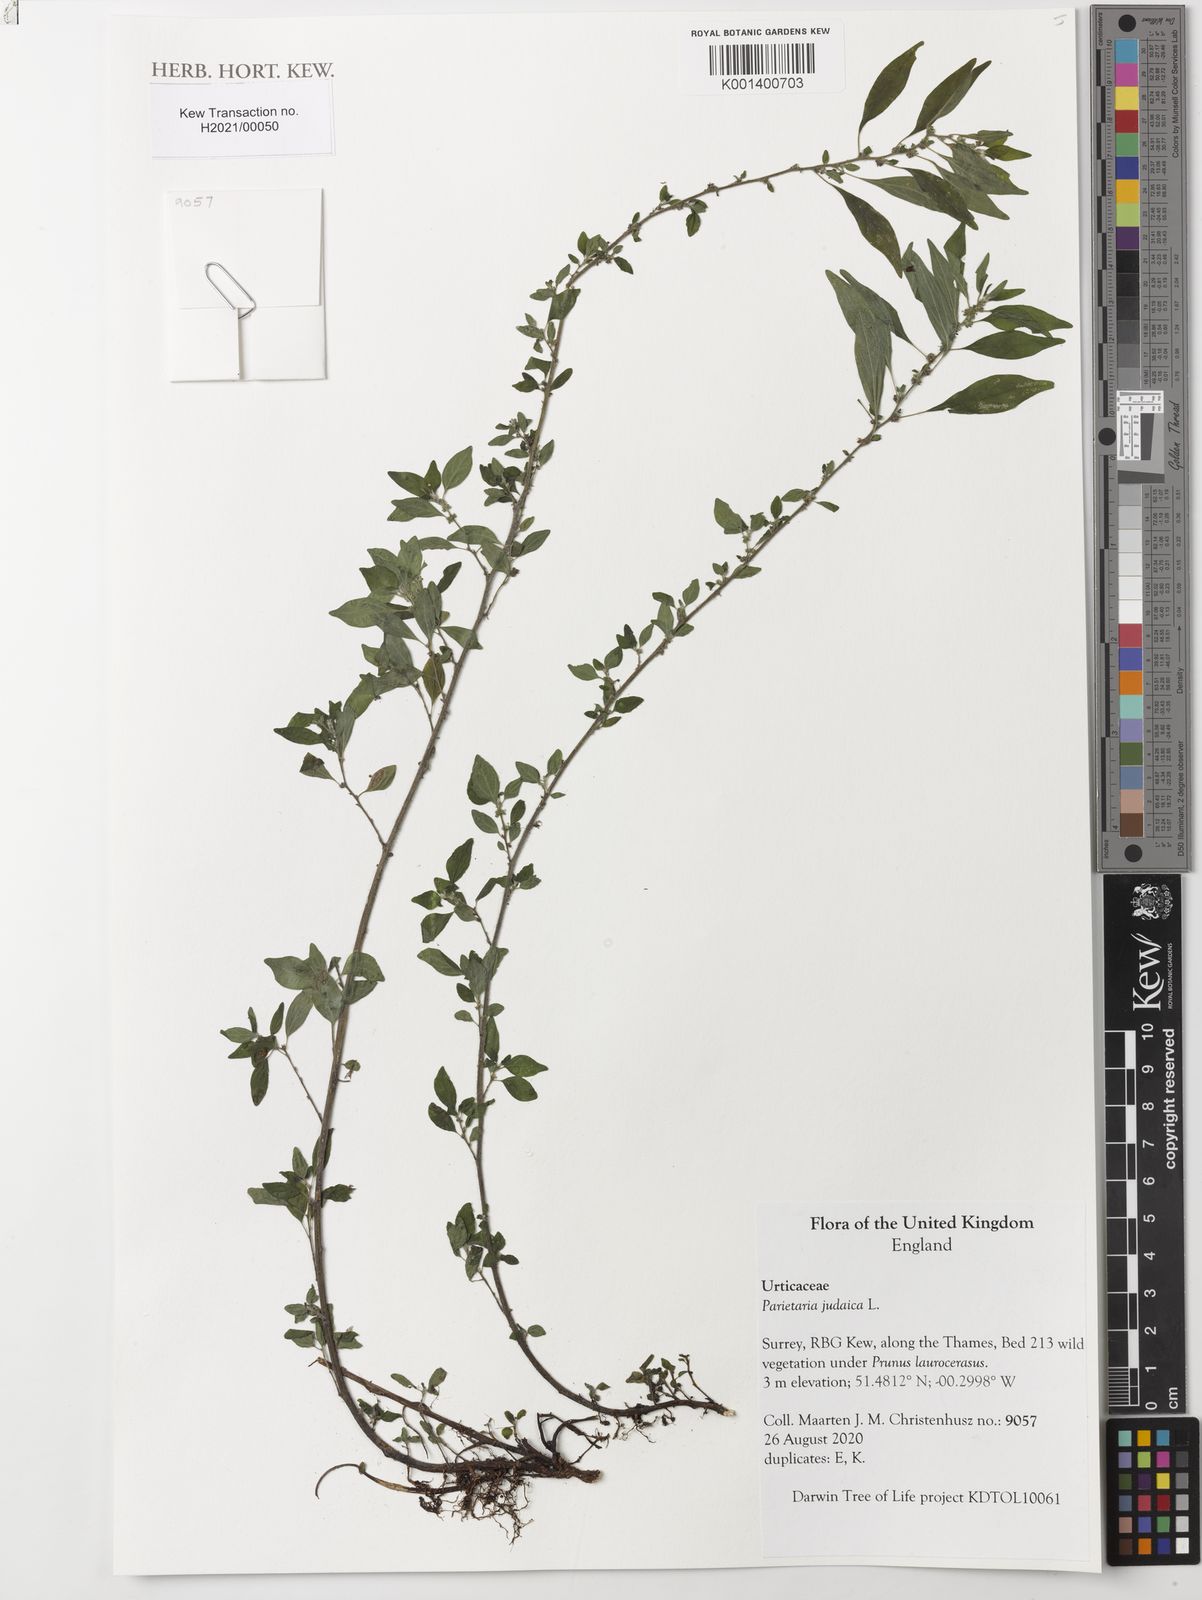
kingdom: Plantae
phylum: Tracheophyta
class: Magnoliopsida
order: Rosales
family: Urticaceae
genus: Parietaria
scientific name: Parietaria judaica
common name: Pellitory-of-the-wall
